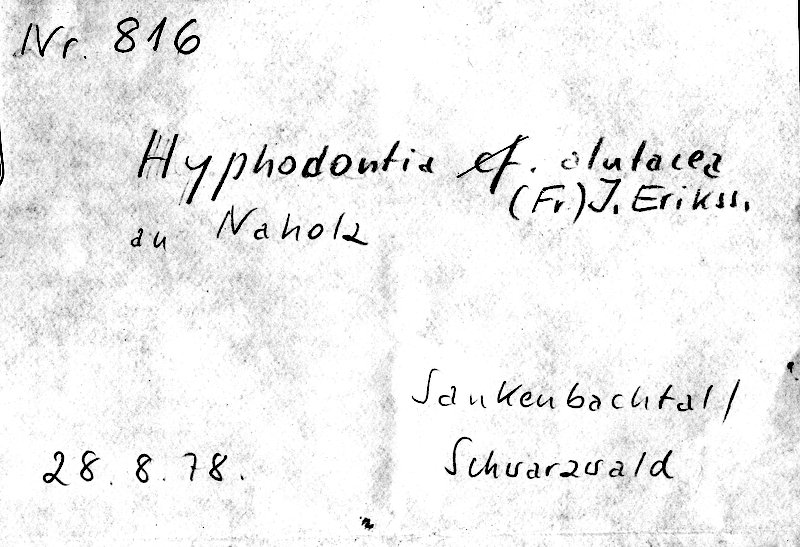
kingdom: Fungi
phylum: Basidiomycota
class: Agaricomycetes
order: Hymenochaetales
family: Schizoporaceae
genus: Alutaceodontia
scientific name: Alutaceodontia alutacea
